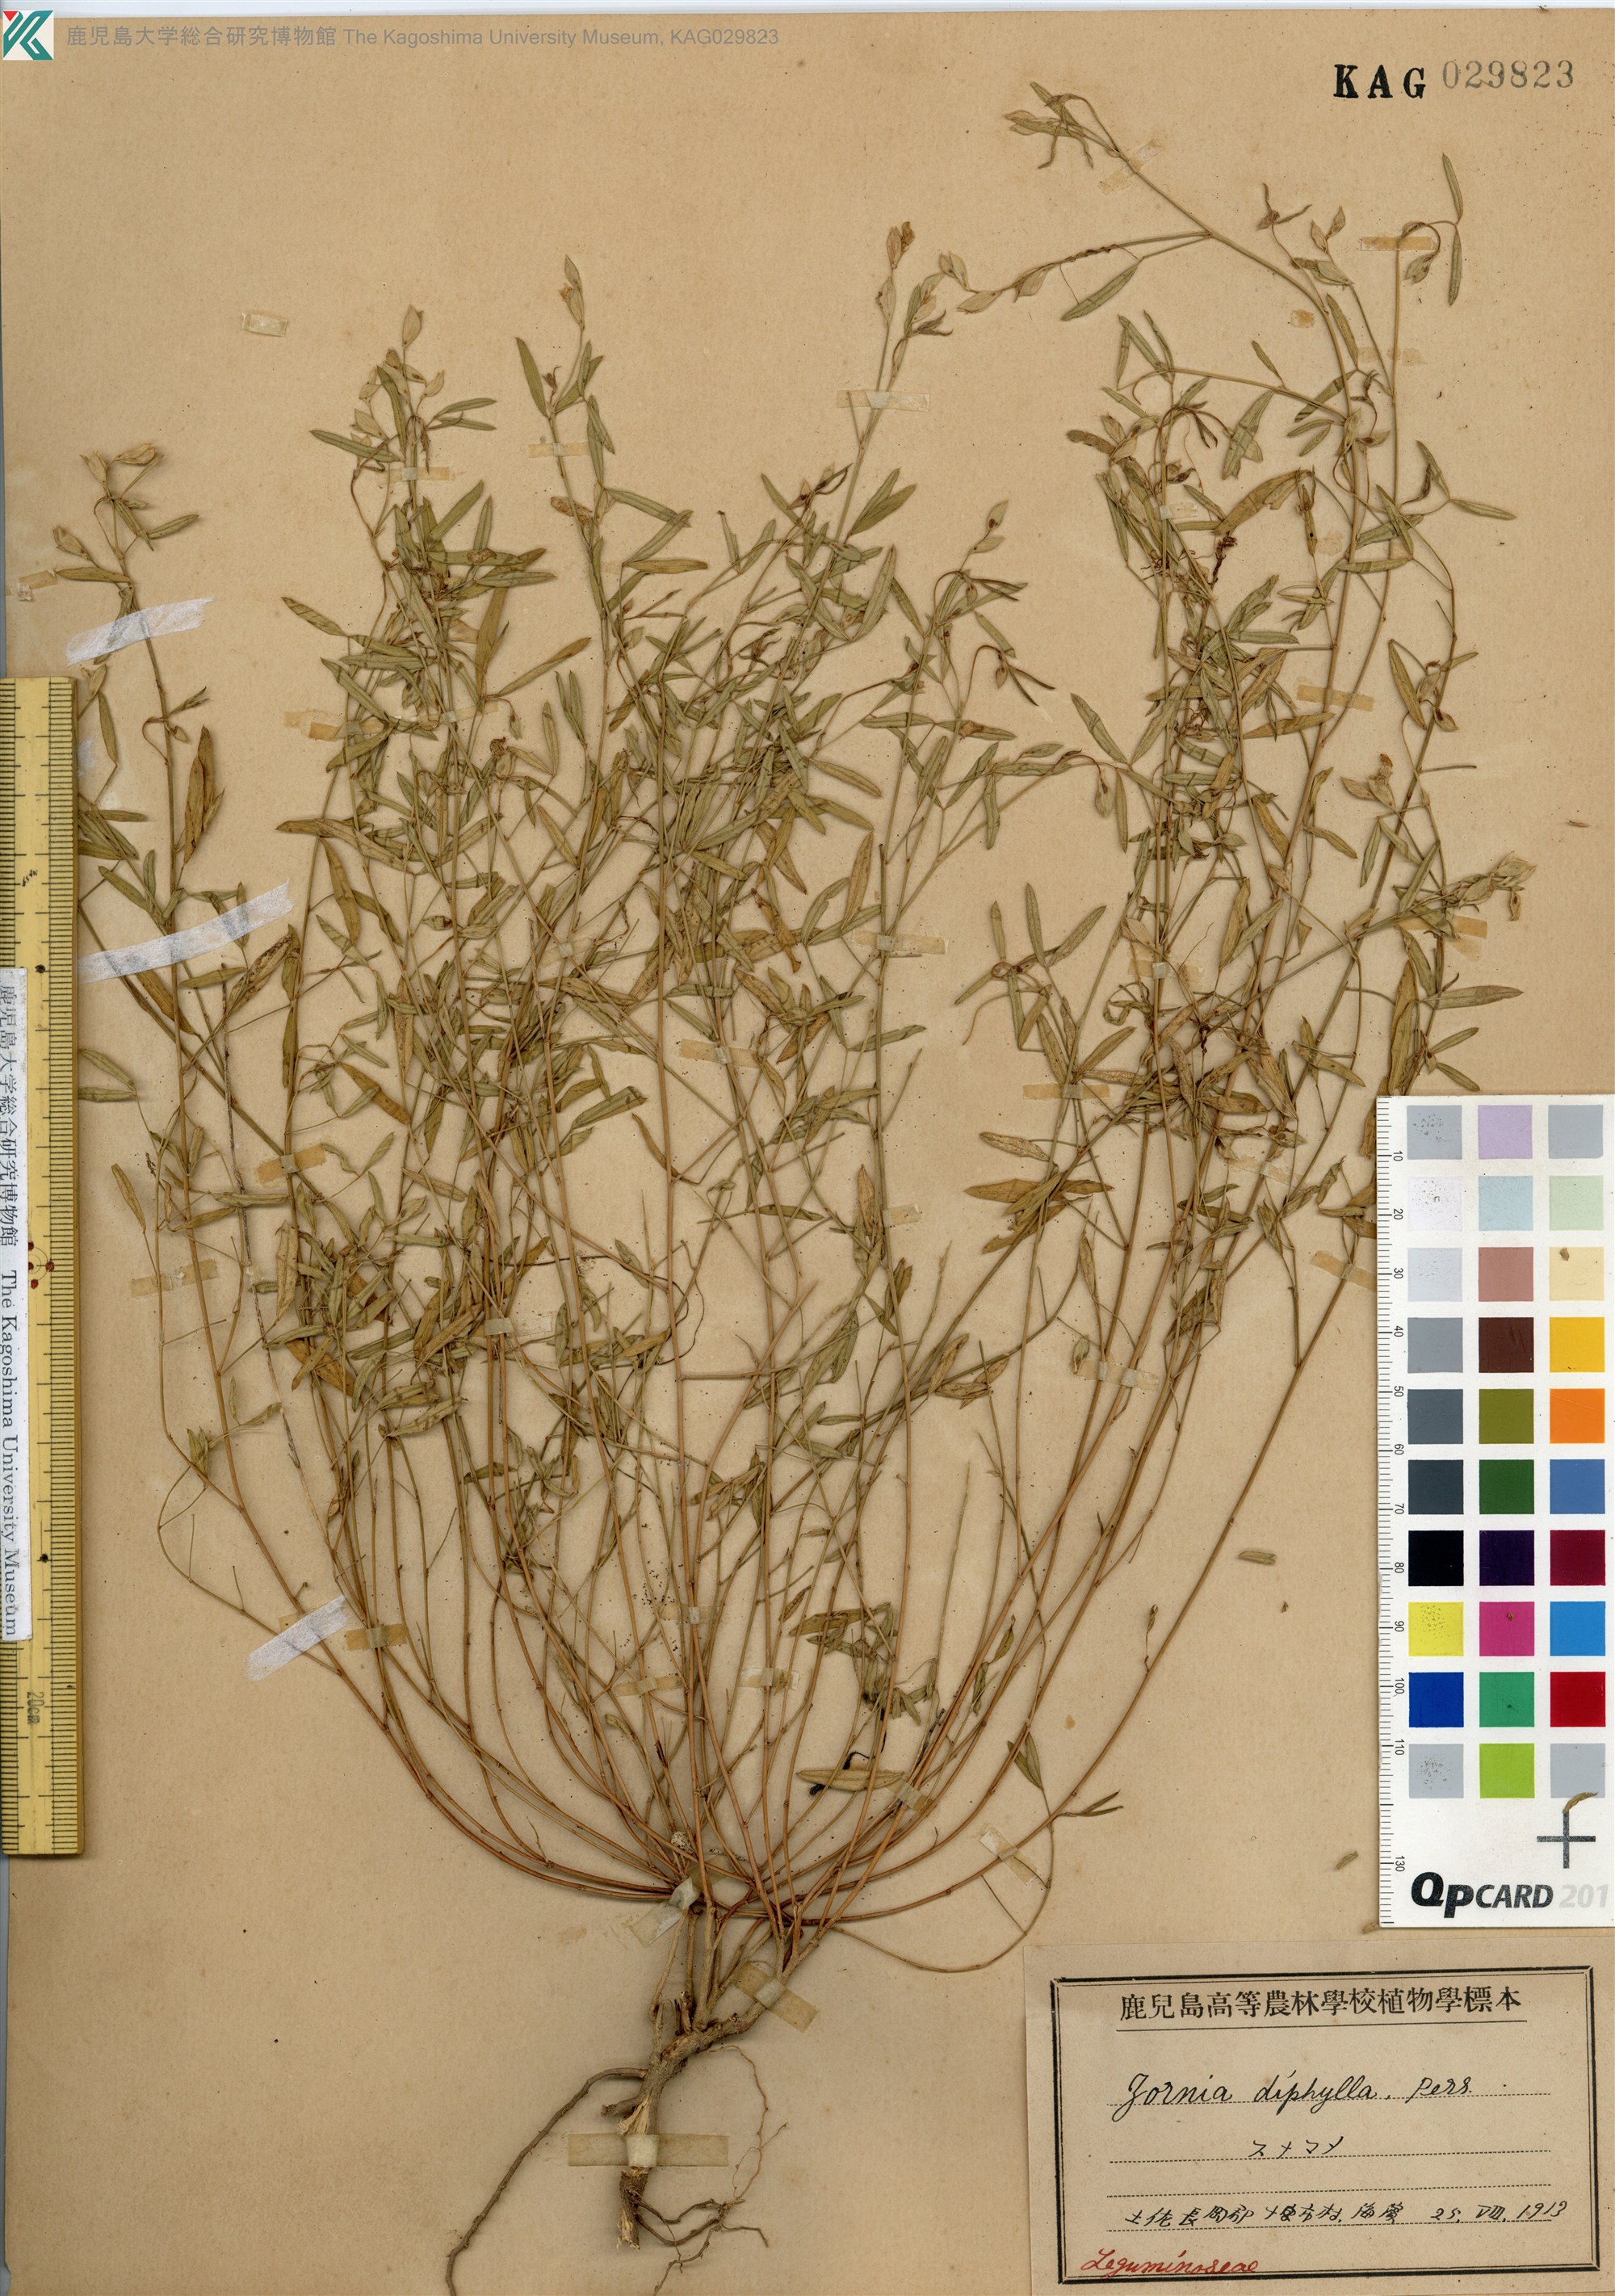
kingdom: Plantae
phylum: Tracheophyta
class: Magnoliopsida
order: Fabales
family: Fabaceae
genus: Zornia
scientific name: Zornia gibbosa
